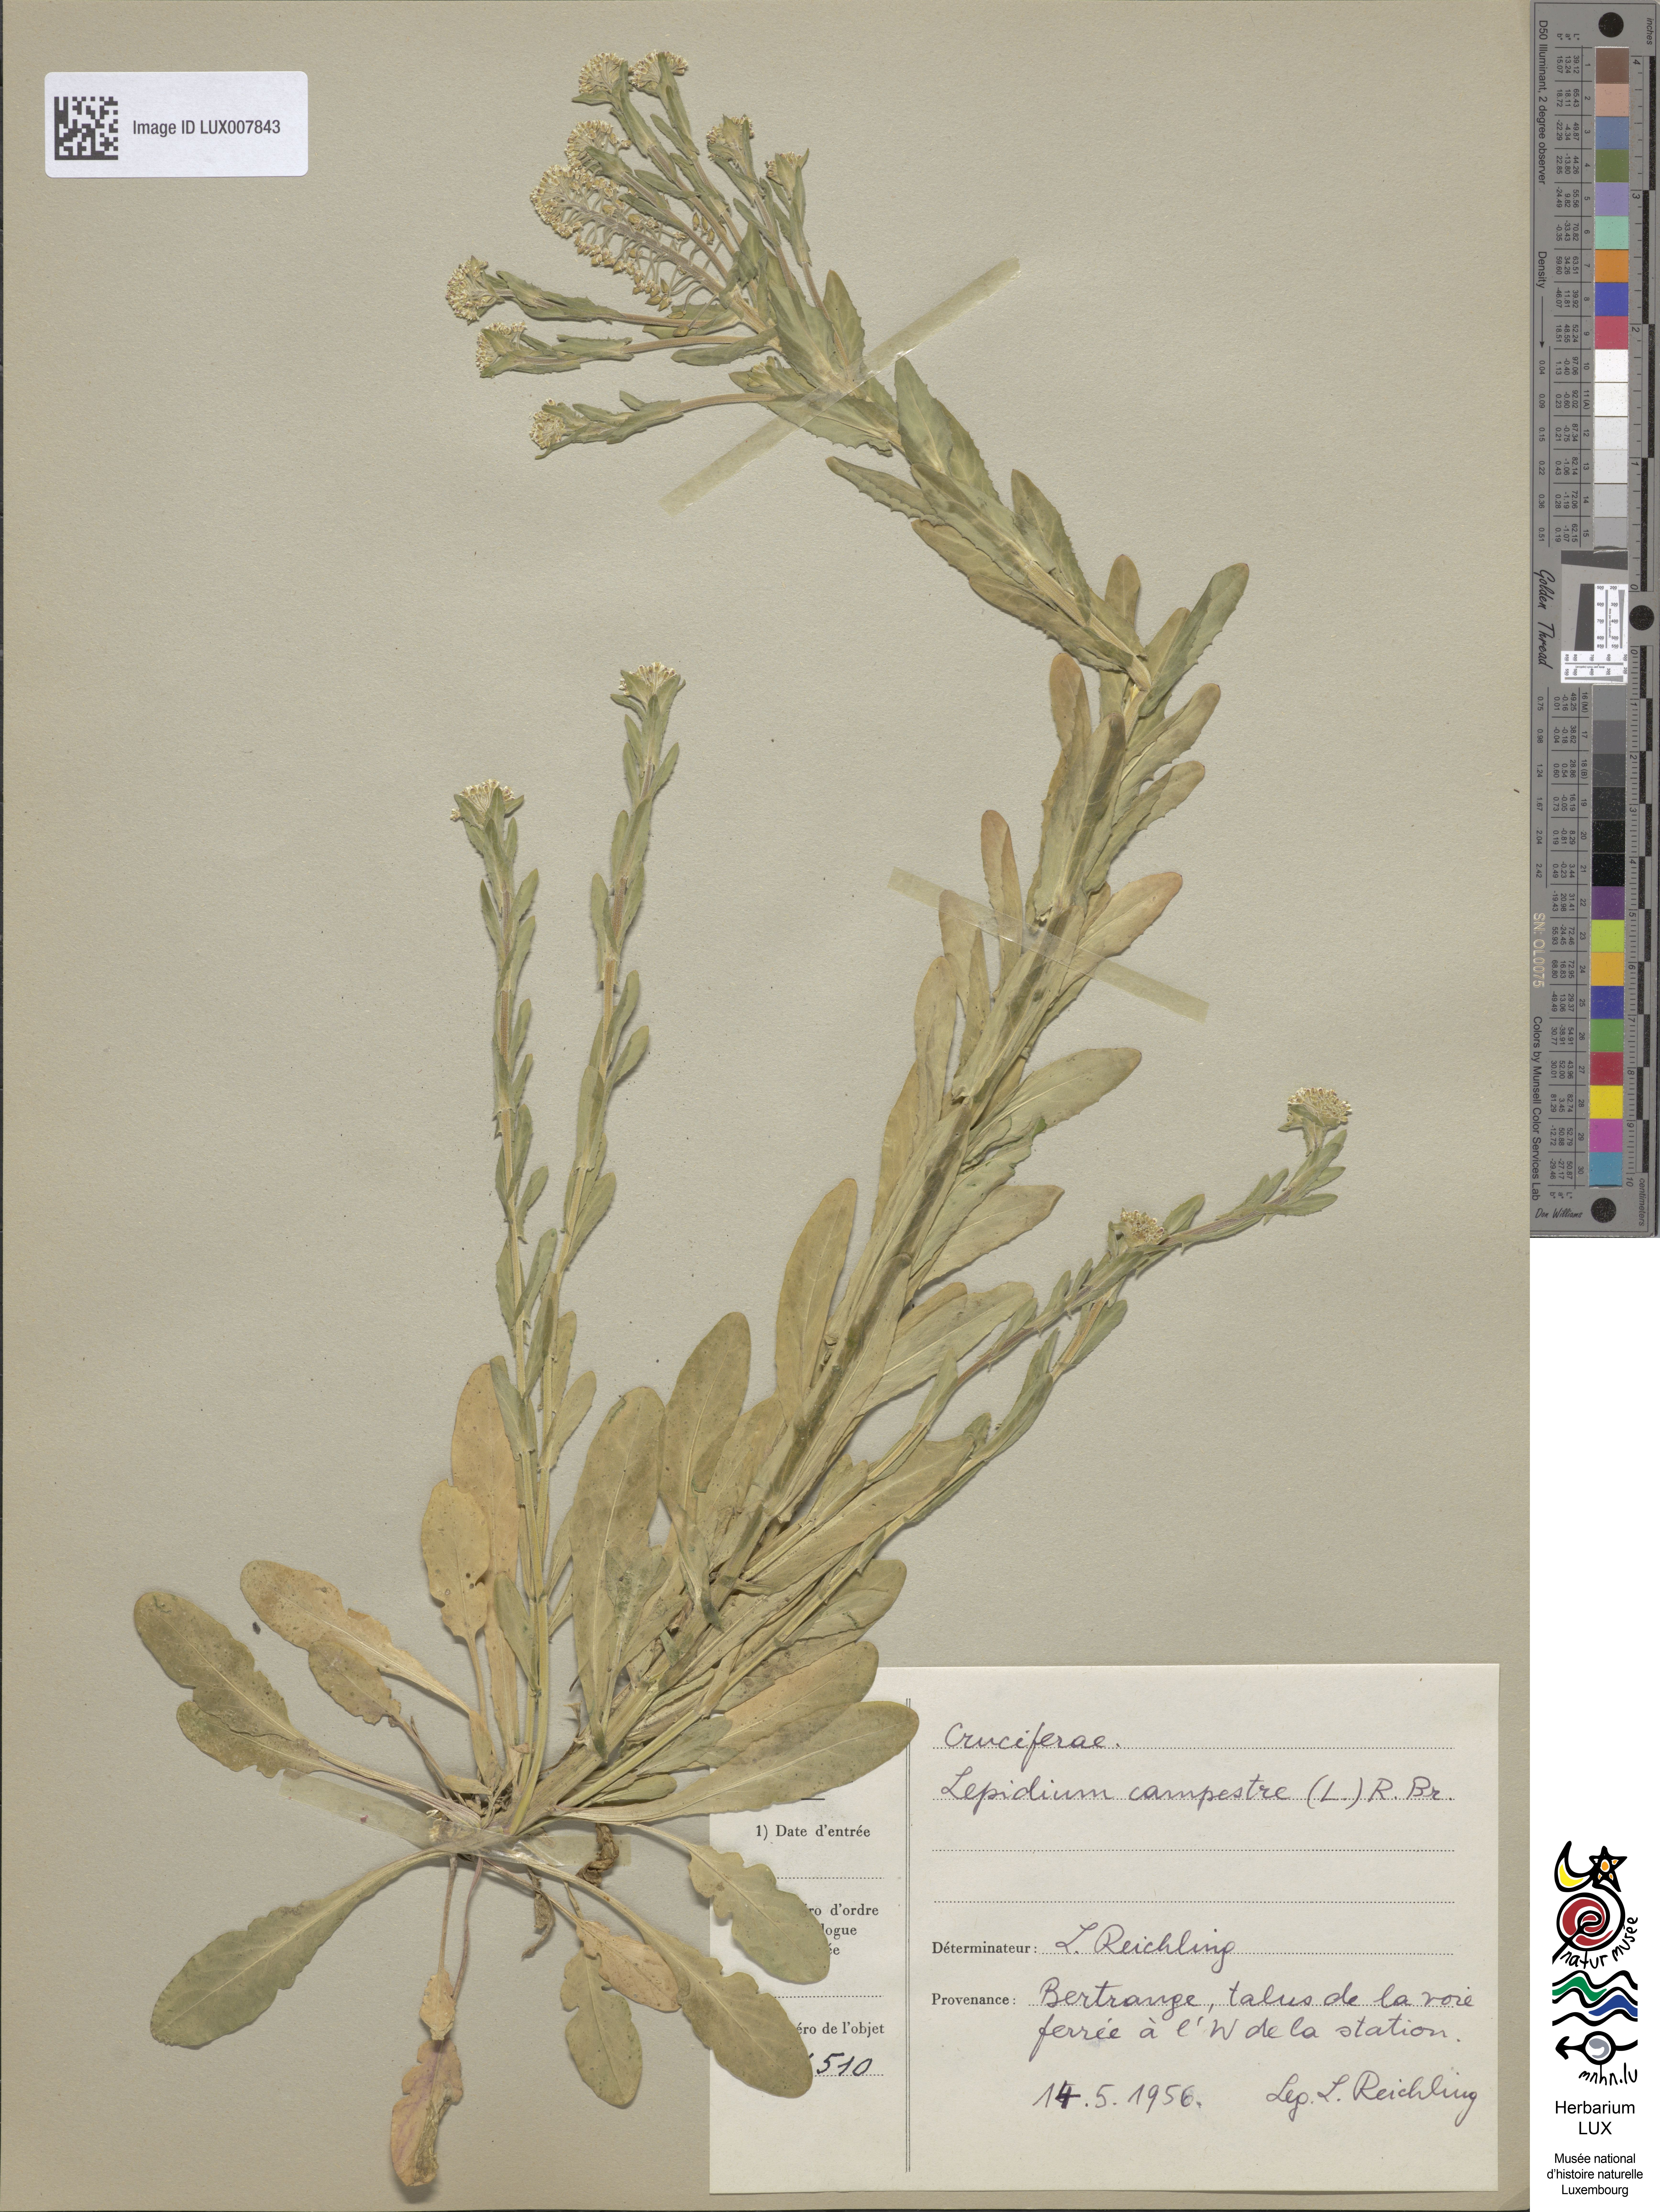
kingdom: Plantae
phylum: Tracheophyta
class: Magnoliopsida
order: Brassicales
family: Brassicaceae
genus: Lepidium
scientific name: Lepidium campestre
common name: Field pepperwort
